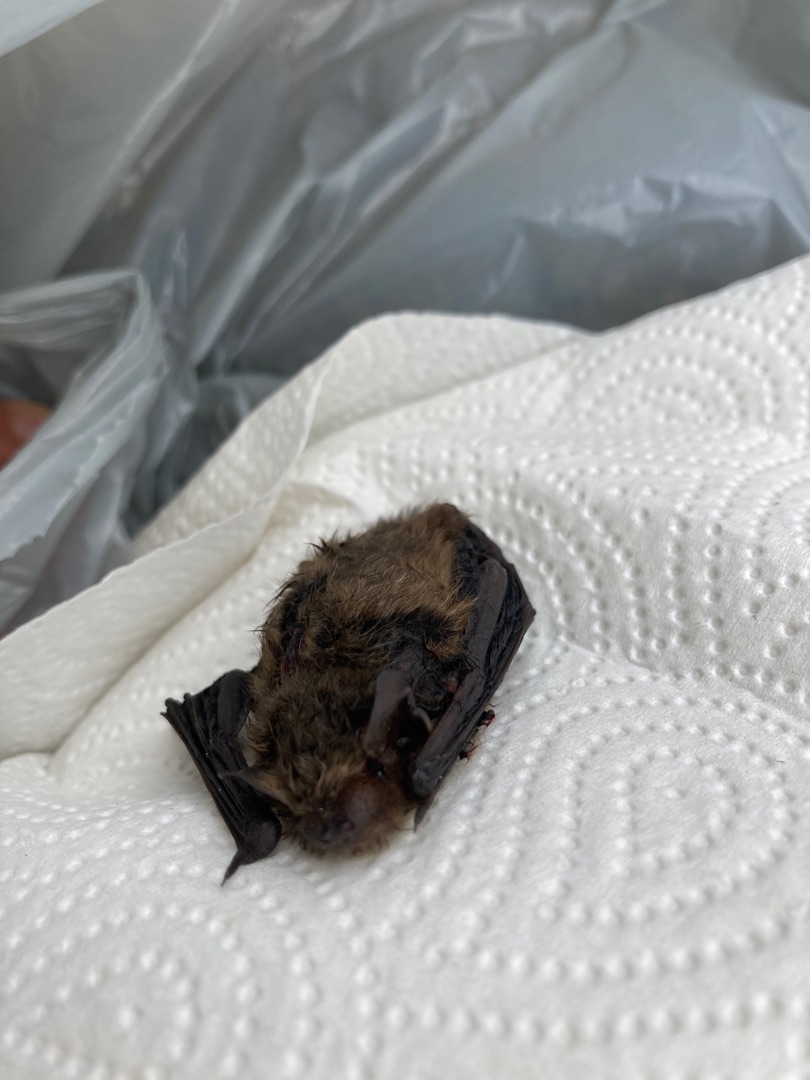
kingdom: Animalia
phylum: Chordata
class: Mammalia
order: Chiroptera
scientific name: Chiroptera
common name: Flagermus
